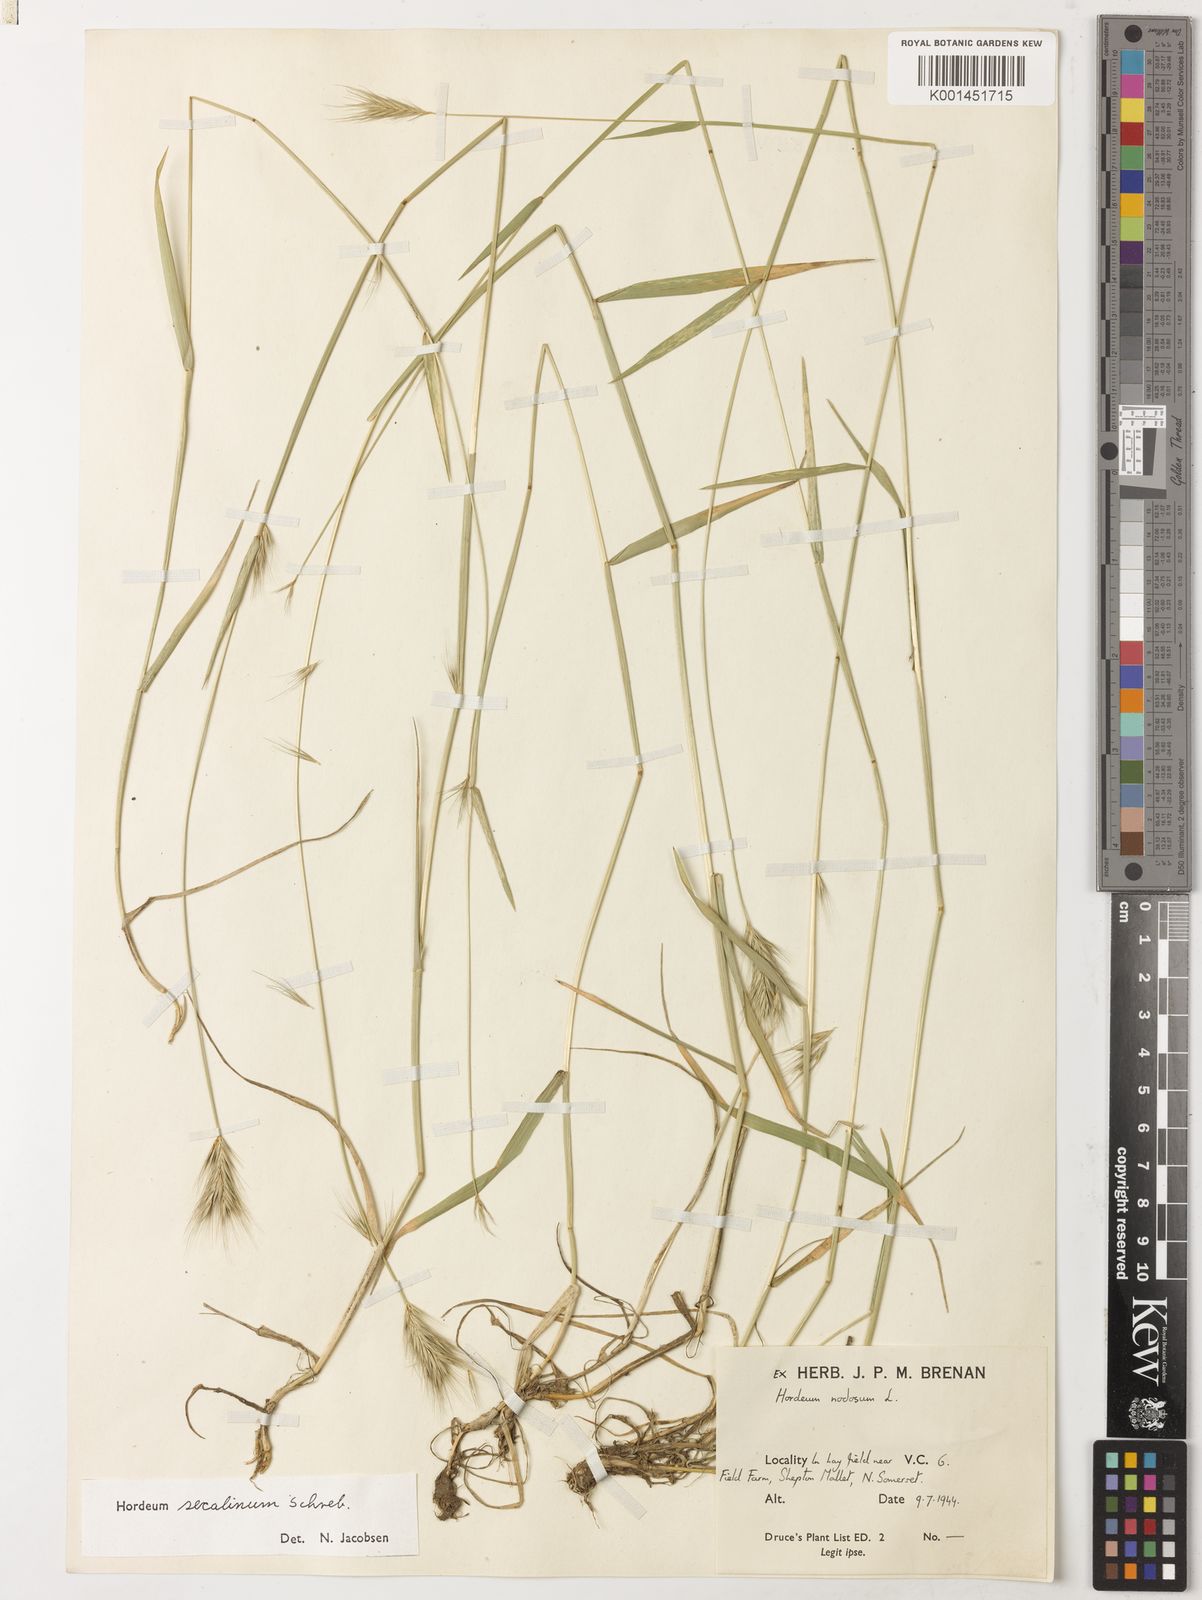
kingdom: Plantae
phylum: Tracheophyta
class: Liliopsida
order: Poales
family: Poaceae
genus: Hordeum
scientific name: Hordeum secalinum
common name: Meadow barley
